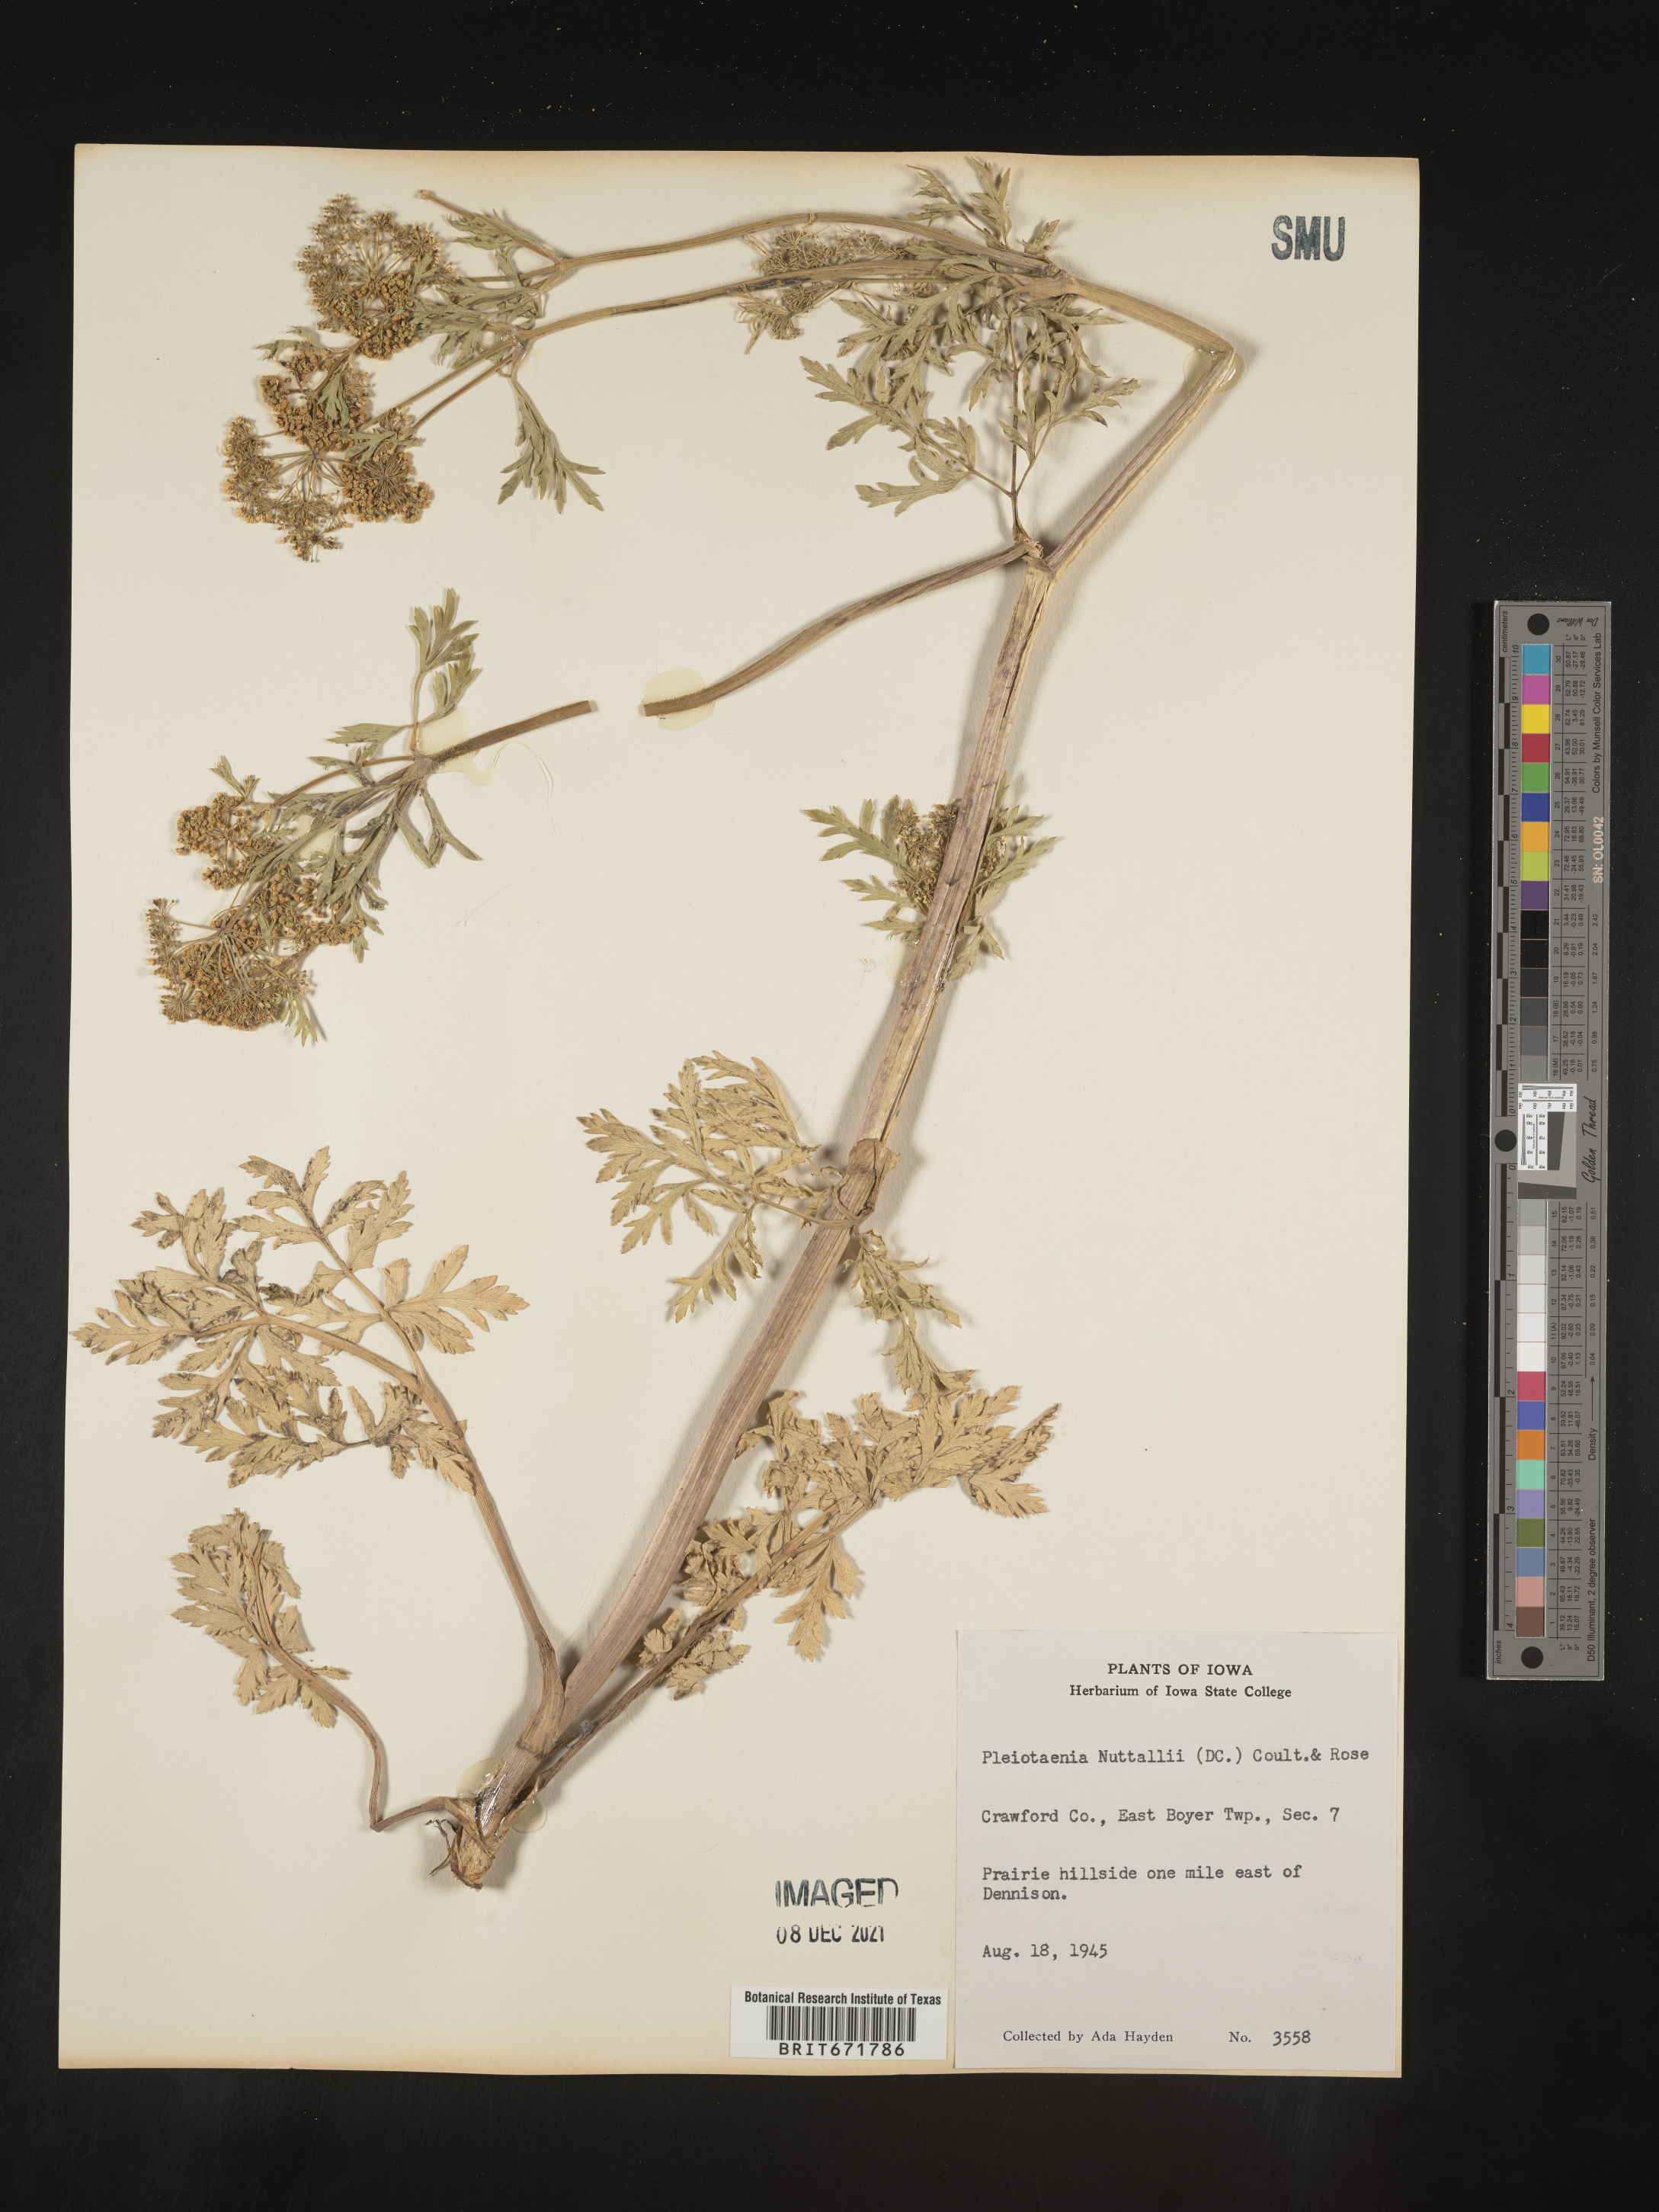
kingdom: Plantae
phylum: Tracheophyta
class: Magnoliopsida
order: Apiales
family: Apiaceae
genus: Polytaenia
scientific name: Polytaenia nuttallii
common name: Prairie-parsley
